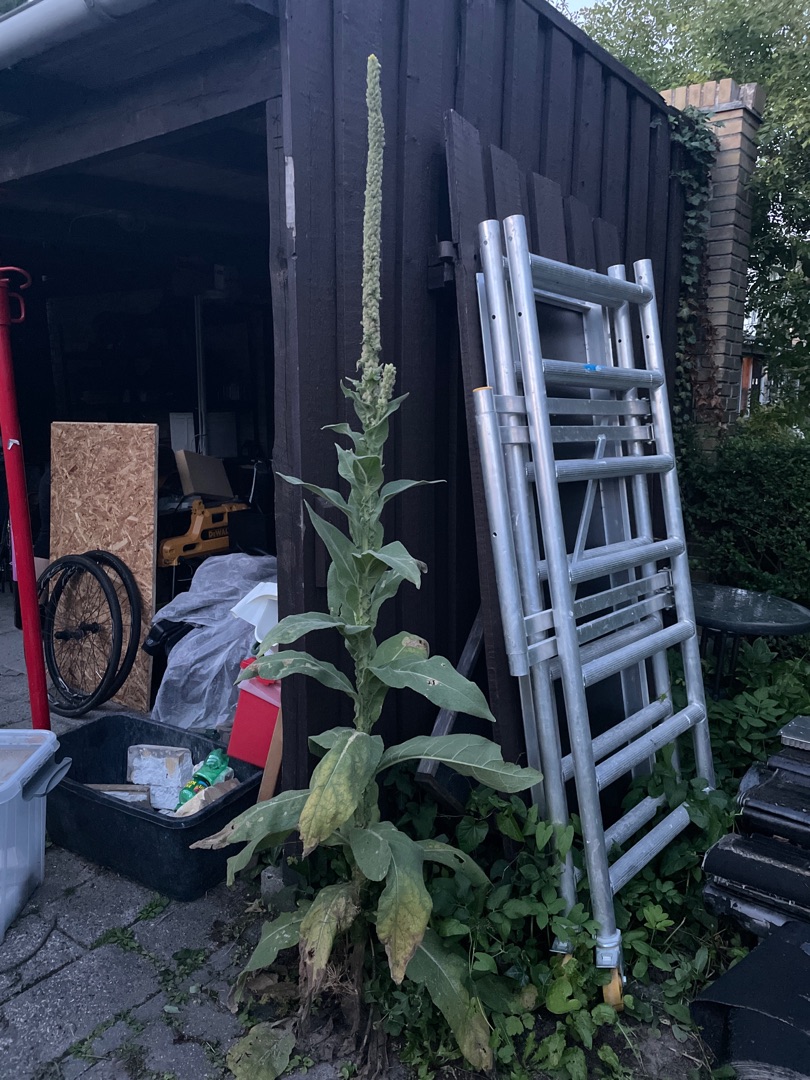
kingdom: Plantae
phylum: Tracheophyta
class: Magnoliopsida
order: Lamiales
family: Scrophulariaceae
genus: Verbascum
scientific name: Verbascum thapsus
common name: Filtbladet kongelys
